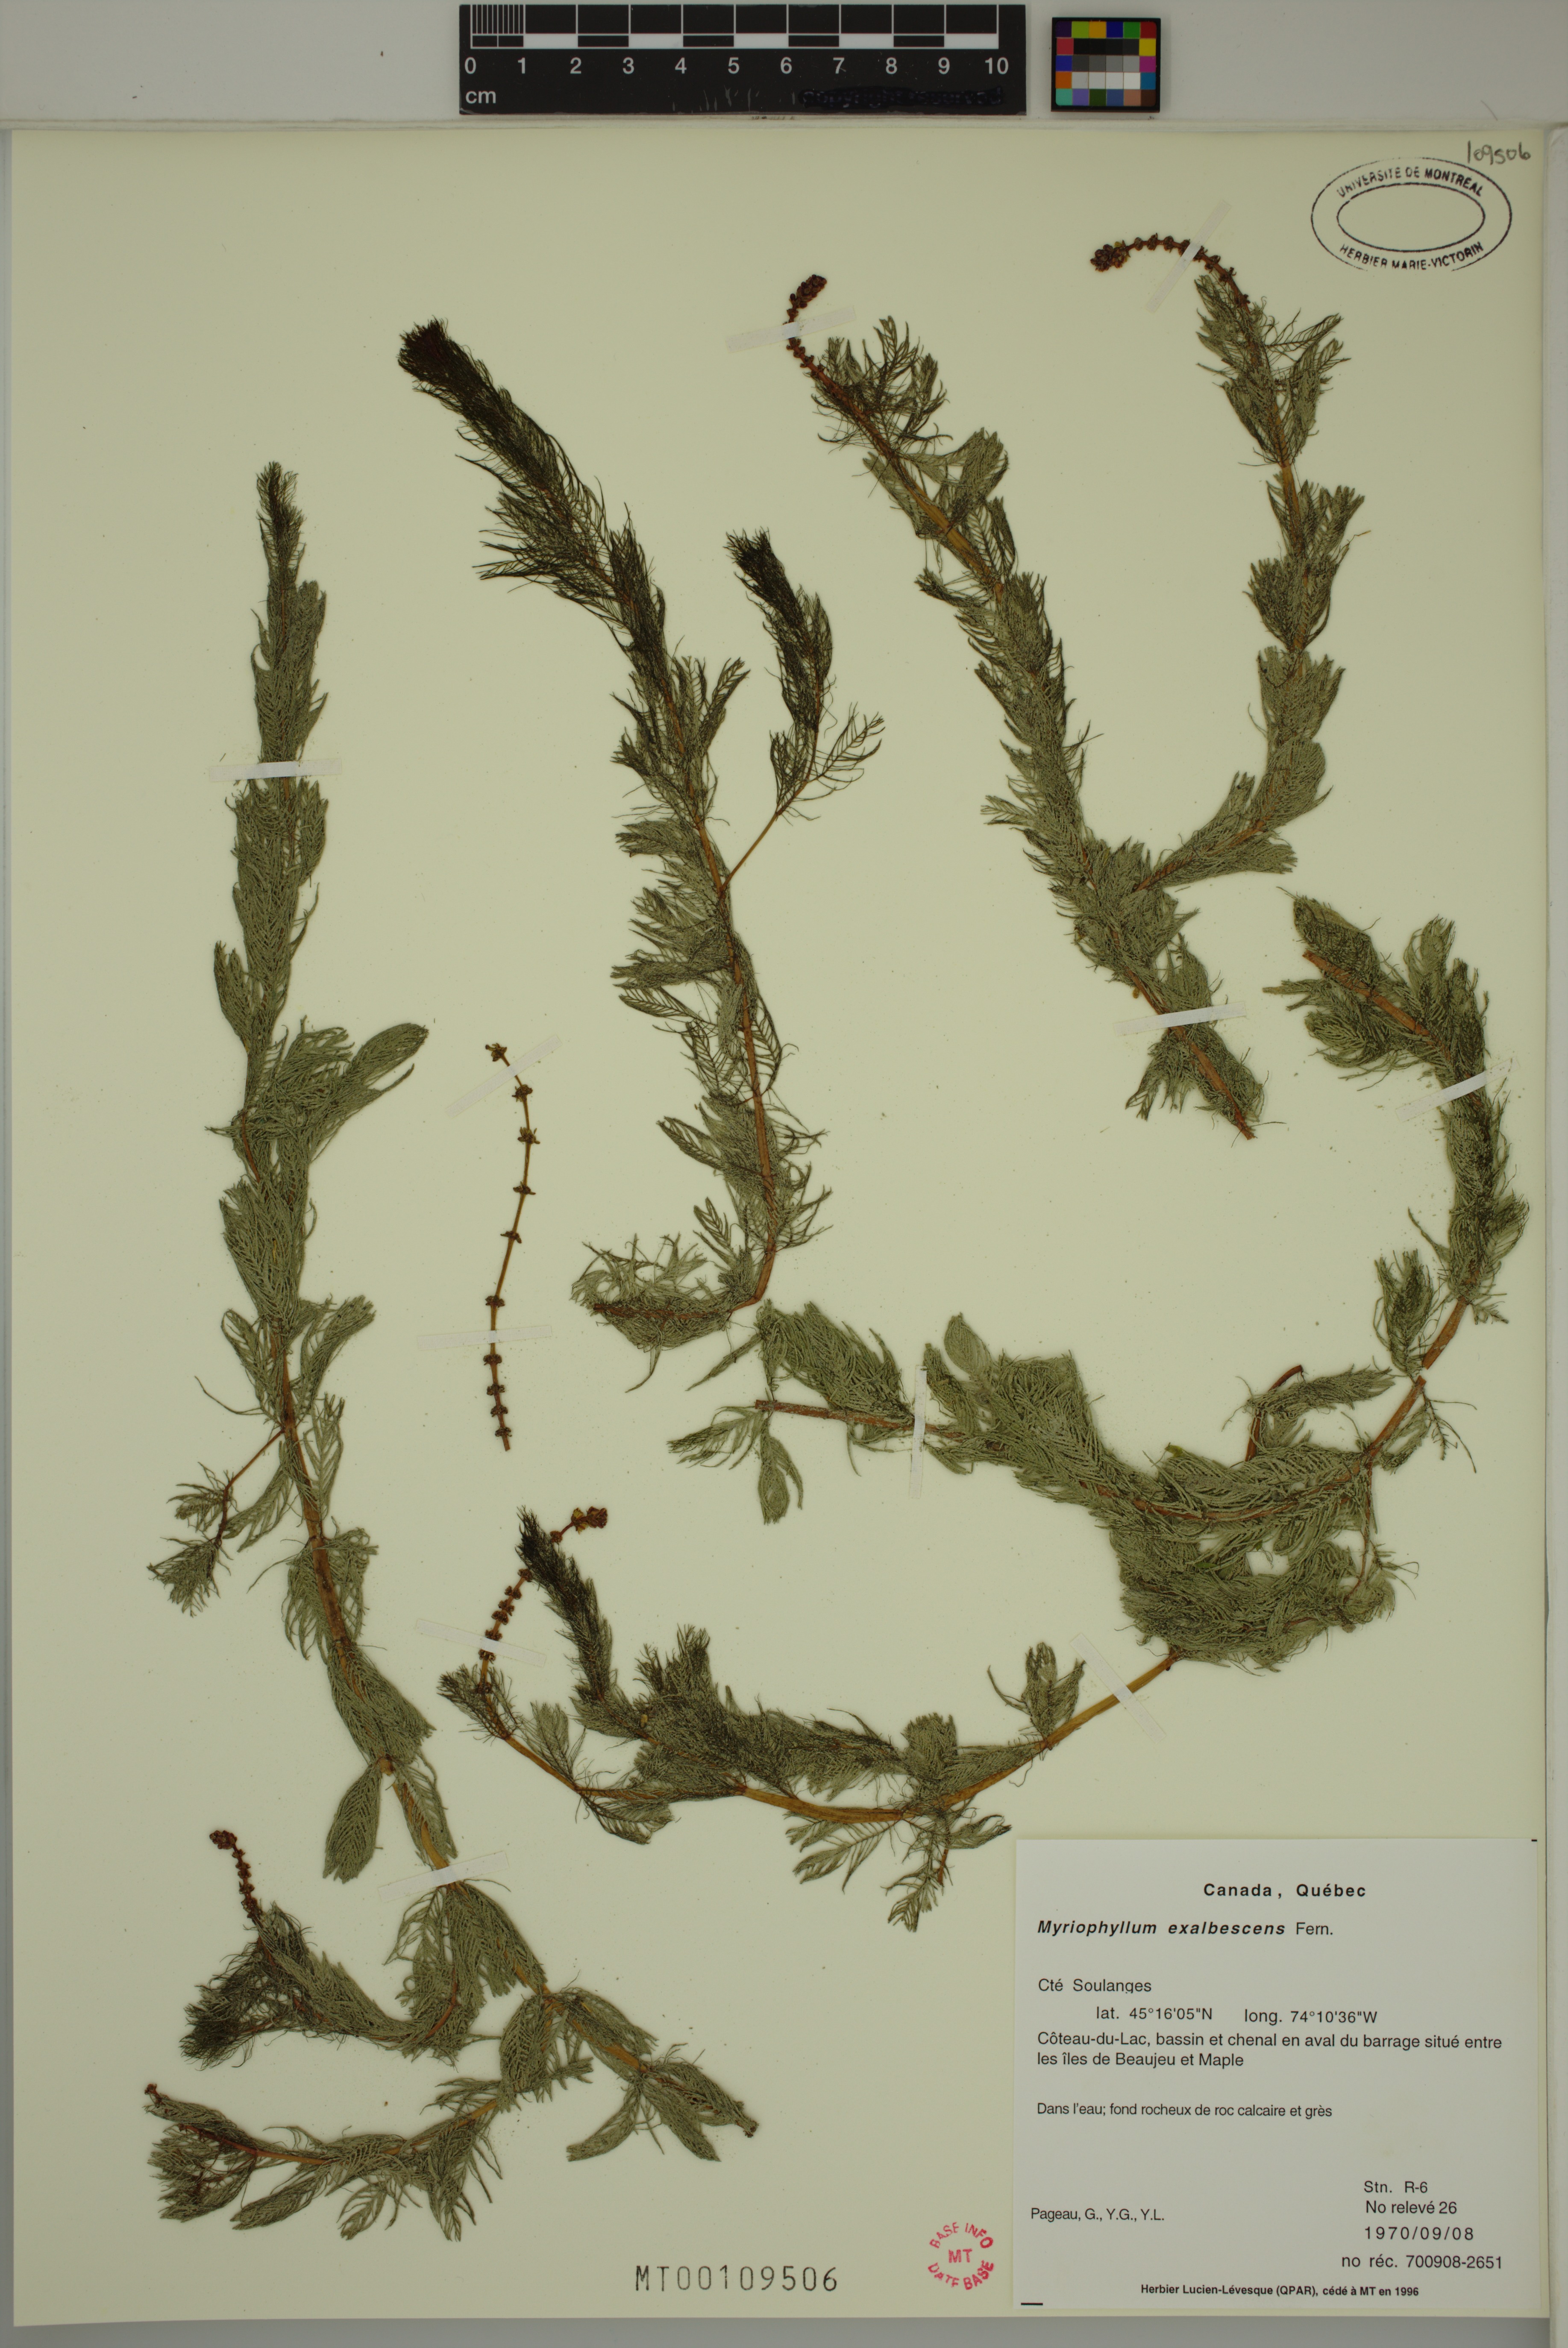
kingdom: Plantae
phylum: Tracheophyta
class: Magnoliopsida
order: Saxifragales
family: Haloragaceae
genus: Myriophyllum
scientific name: Myriophyllum sibiricum
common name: Siberian water-milfoil
